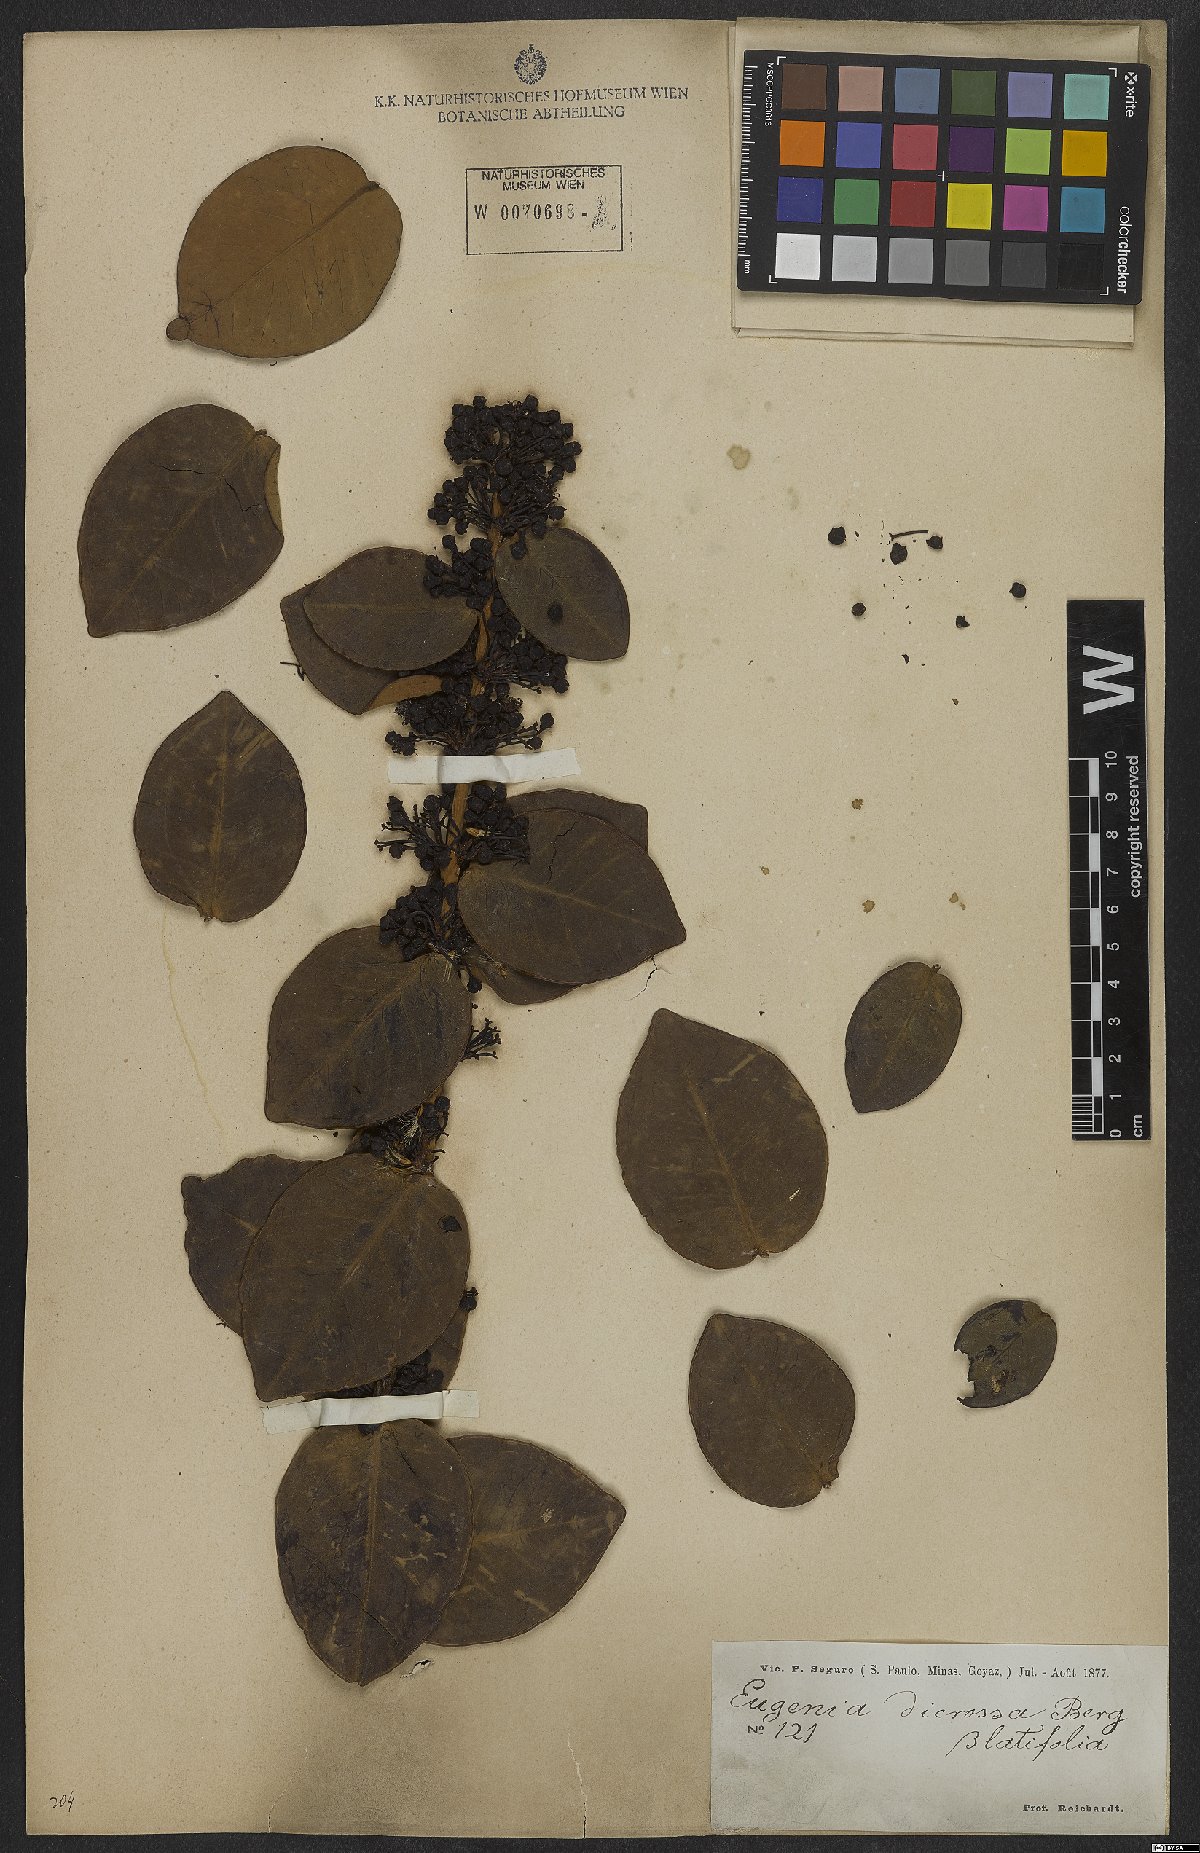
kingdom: Plantae
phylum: Tracheophyta
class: Magnoliopsida
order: Myrtales
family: Myrtaceae
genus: Eugenia
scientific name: Eugenia bimarginata
